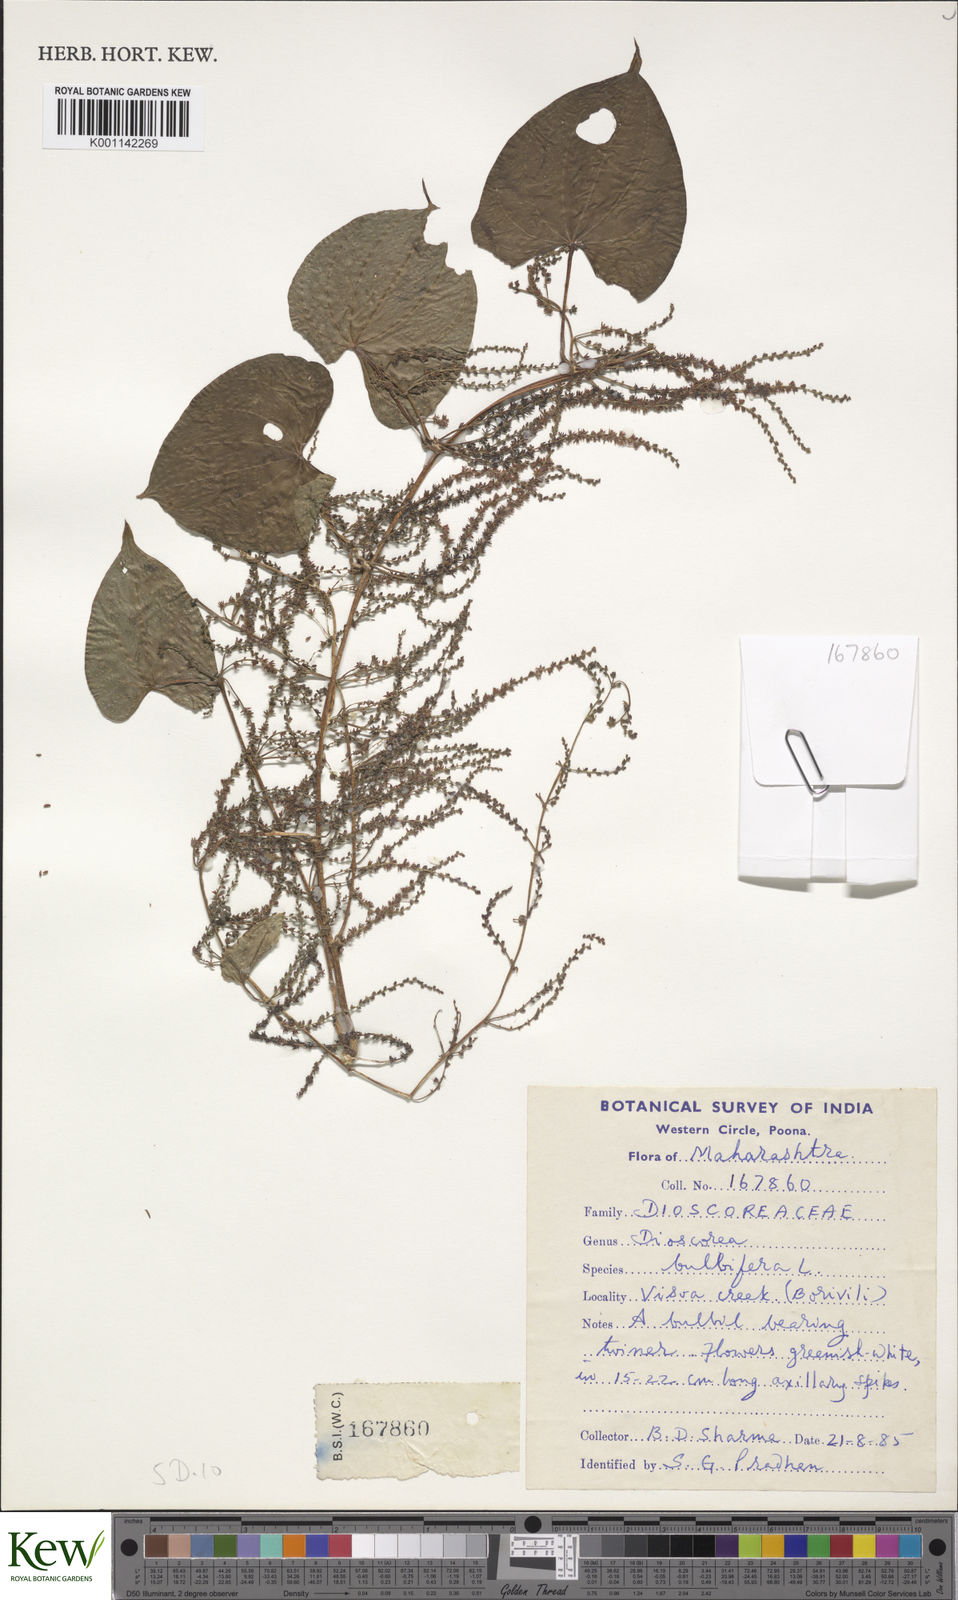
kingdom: Plantae
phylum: Tracheophyta
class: Liliopsida
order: Dioscoreales
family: Dioscoreaceae
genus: Dioscorea
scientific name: Dioscorea bulbifera
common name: Air yam
